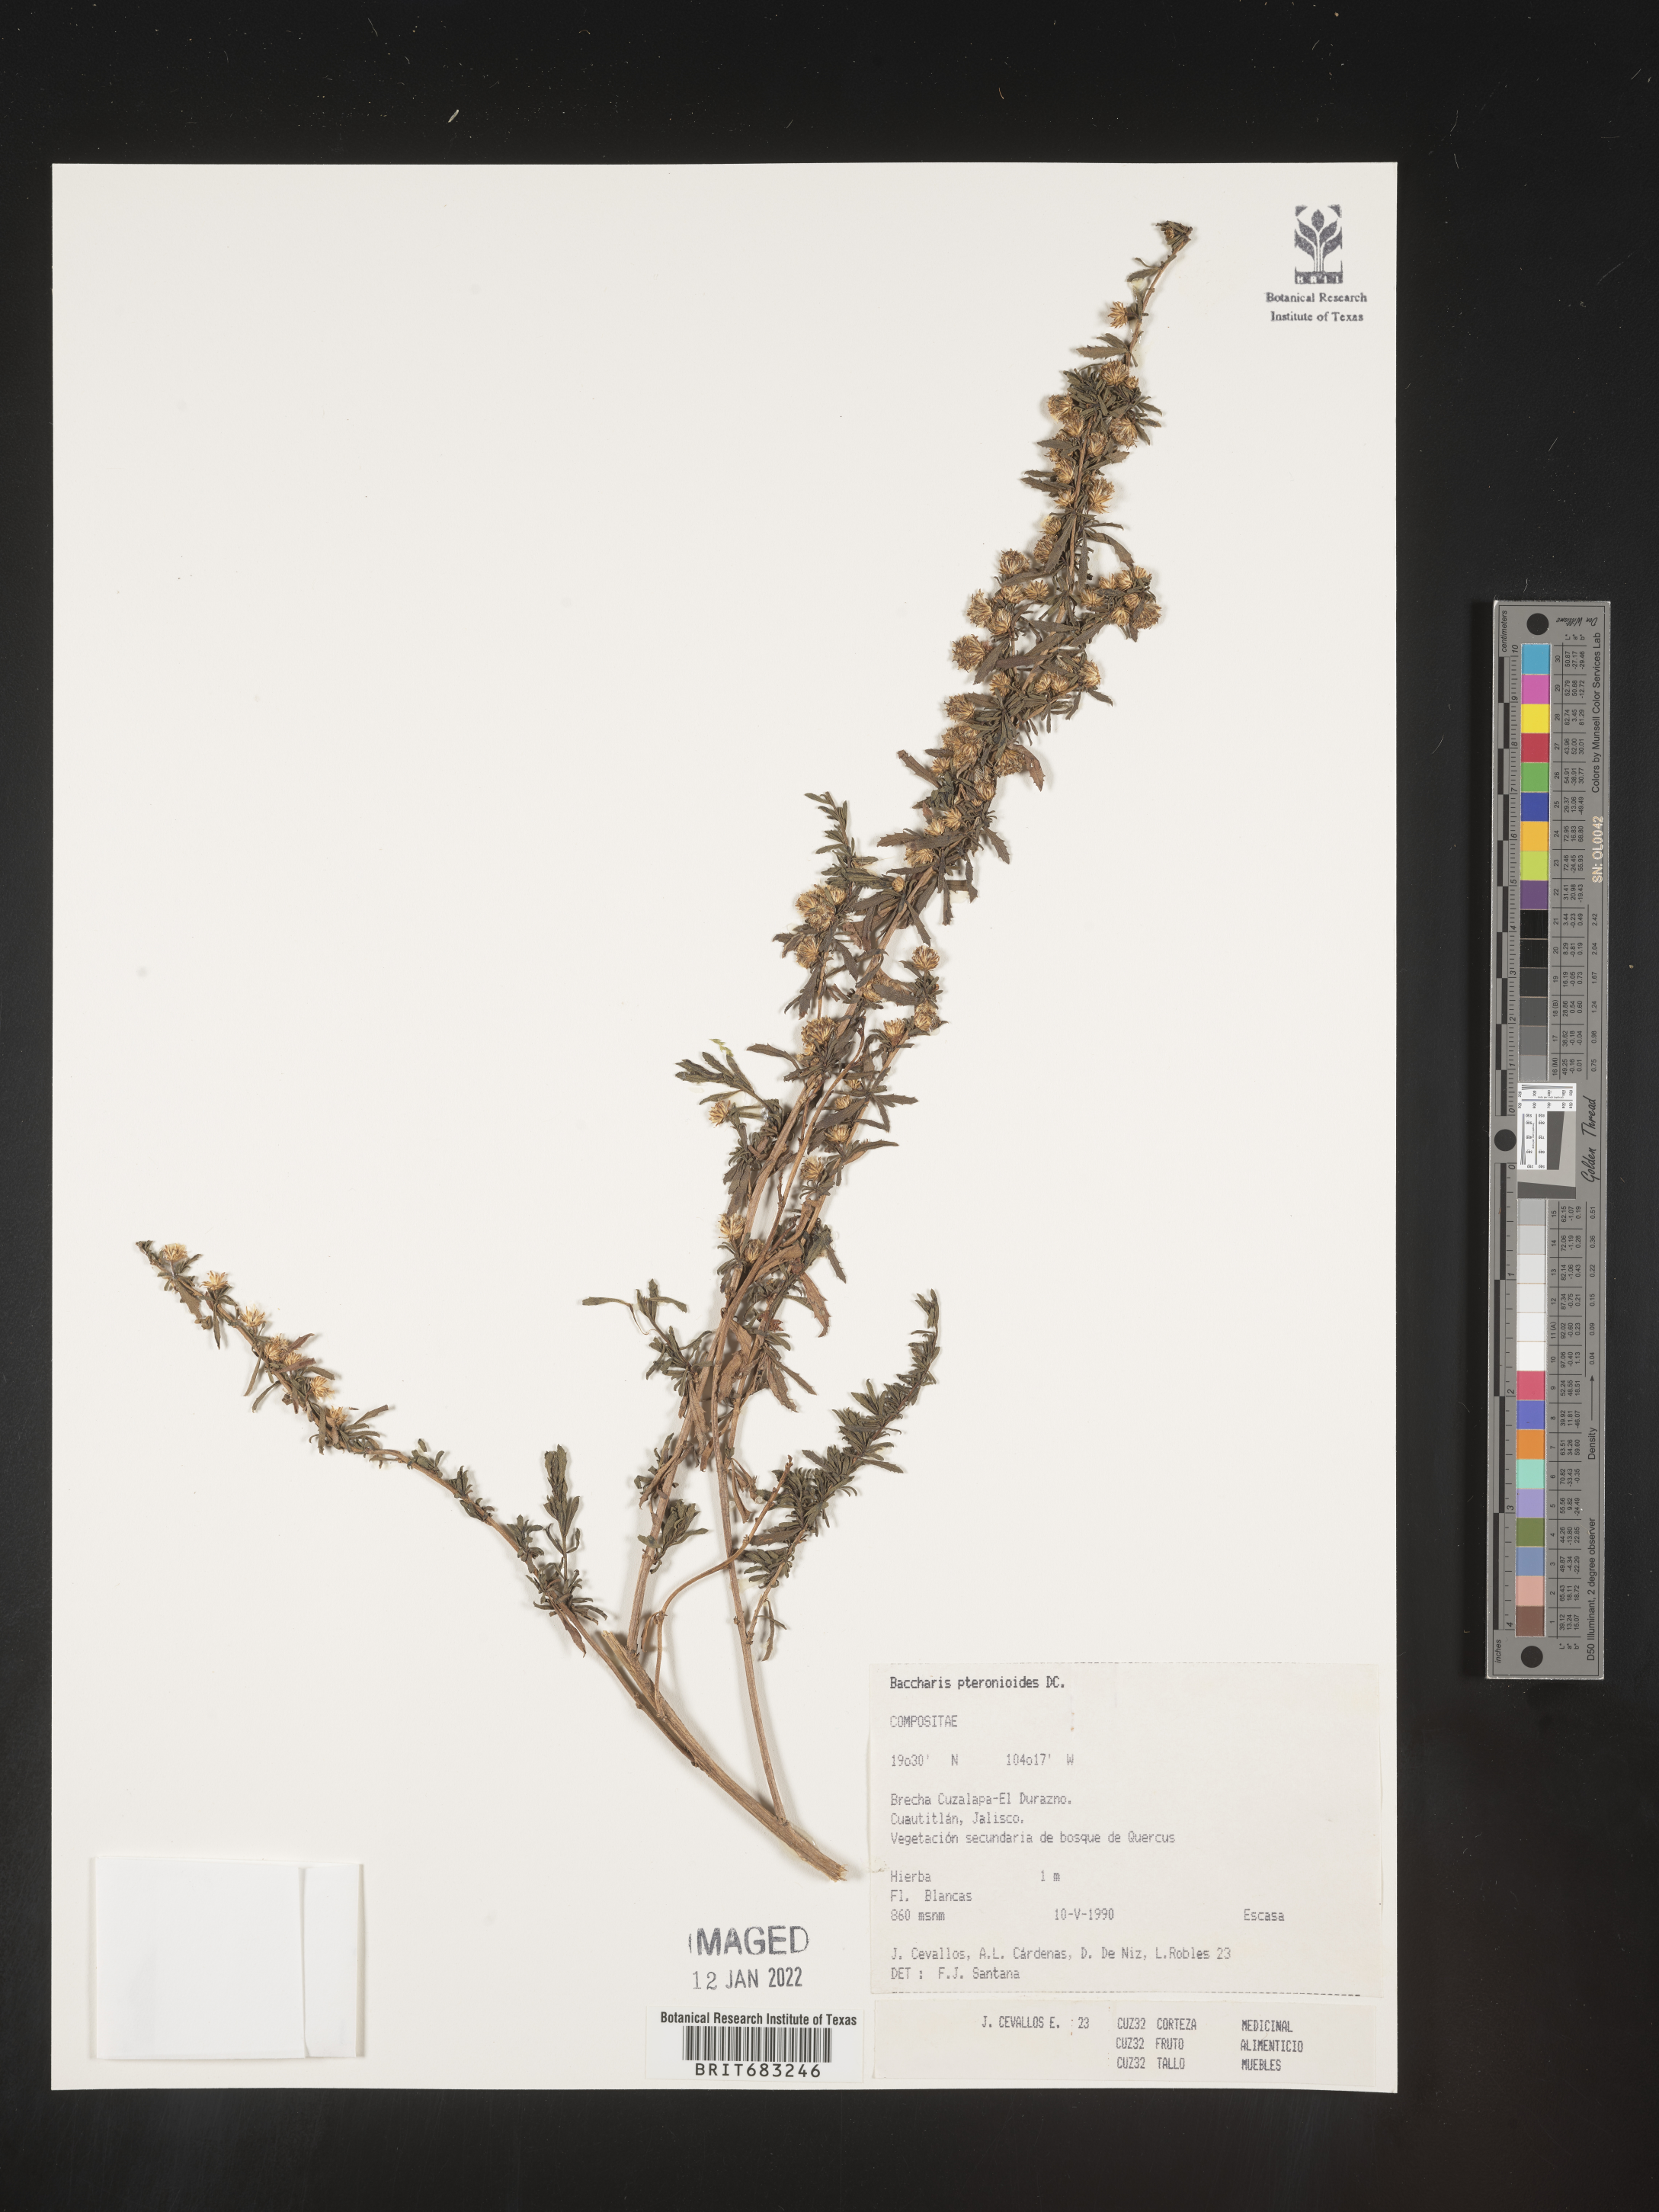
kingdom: Plantae
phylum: Tracheophyta
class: Magnoliopsida
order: Asterales
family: Asteraceae
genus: Baccharis
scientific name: Baccharis pteronioides
